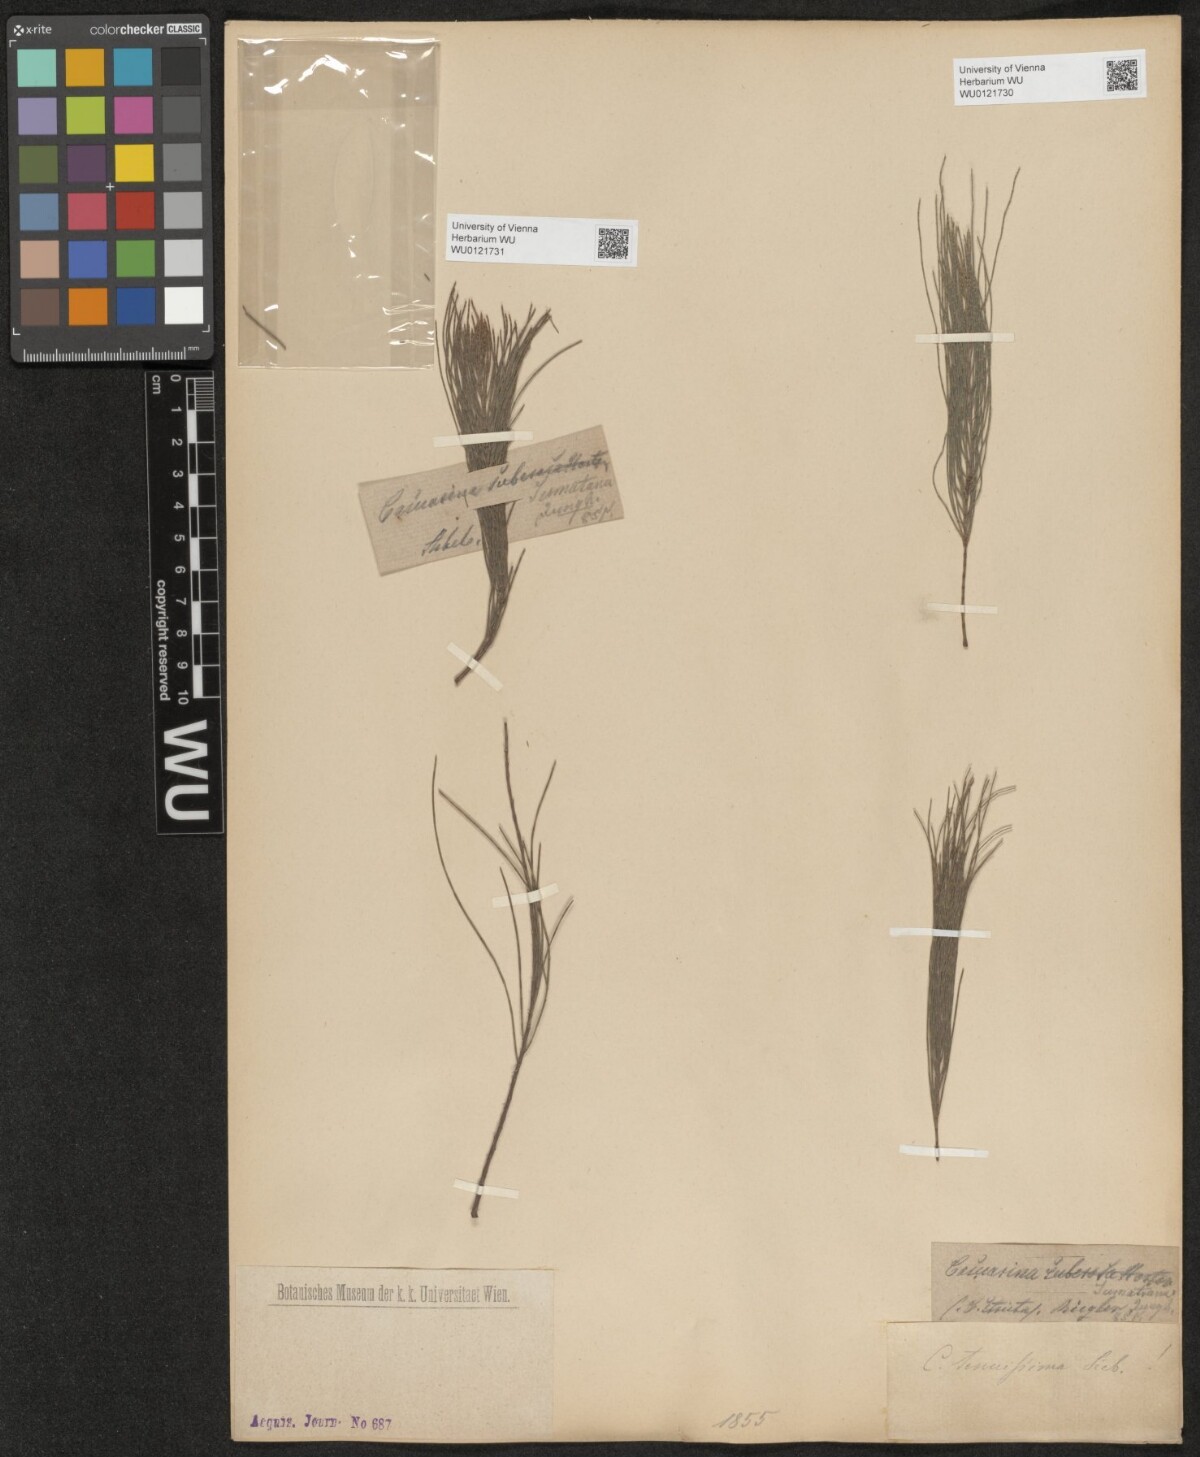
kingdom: Plantae
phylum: Tracheophyta
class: Magnoliopsida
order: Fagales
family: Casuarinaceae
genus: Allocasuarina
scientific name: Allocasuarina torulosa
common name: Forest-oak
